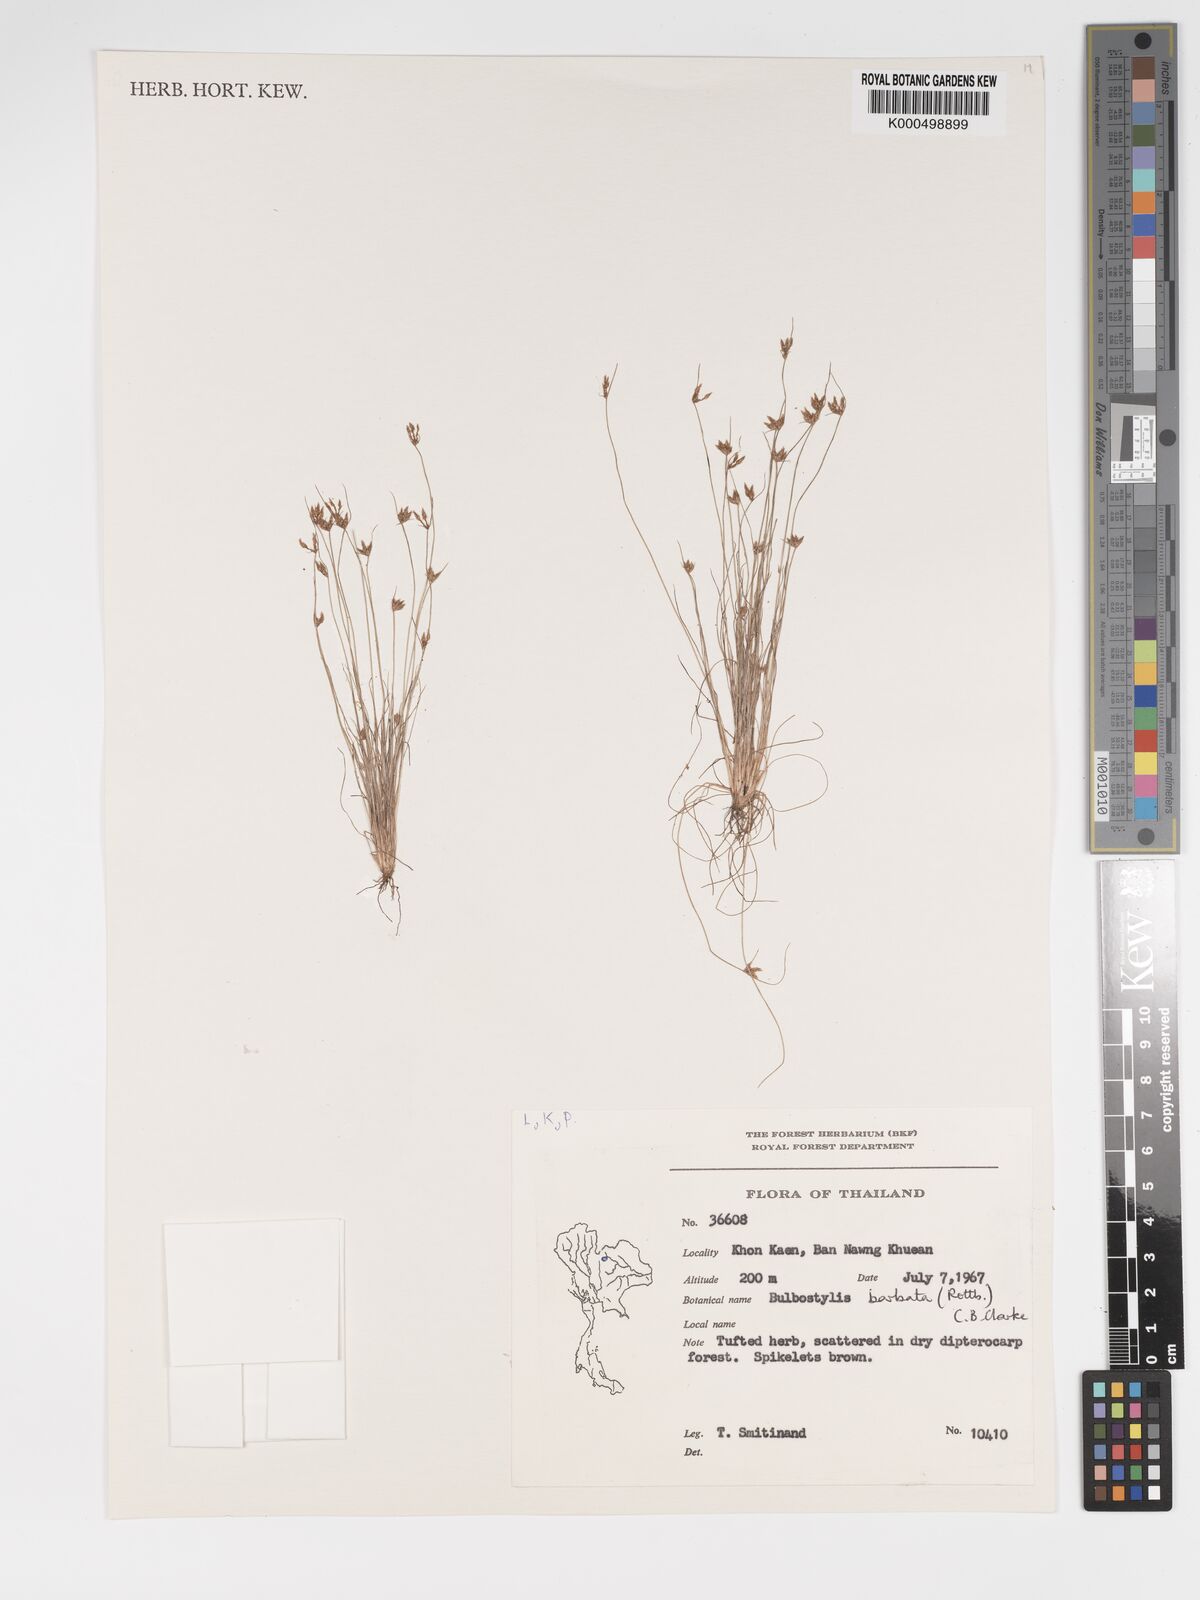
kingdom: Plantae
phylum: Tracheophyta
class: Liliopsida
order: Poales
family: Cyperaceae
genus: Bulbostylis
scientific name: Bulbostylis barbata
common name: Watergrass
